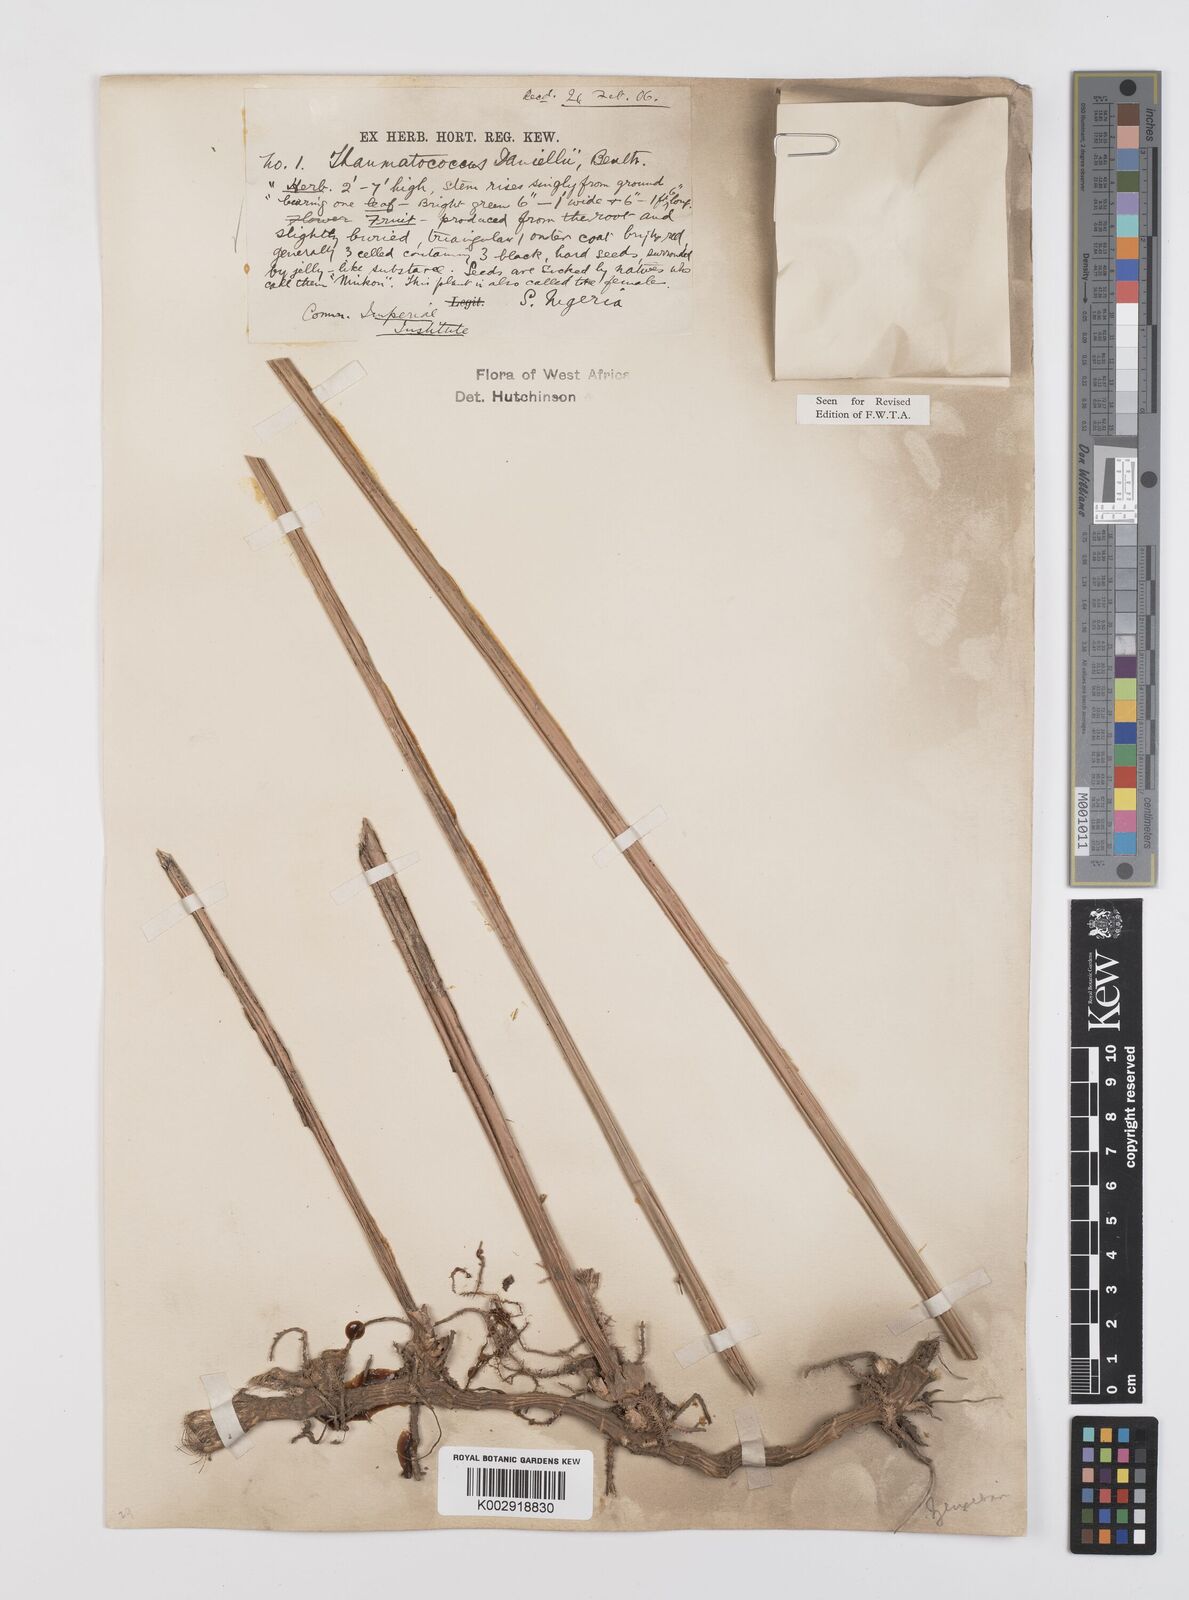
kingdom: Plantae
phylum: Tracheophyta
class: Liliopsida
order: Zingiberales
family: Marantaceae
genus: Thaumatococcus
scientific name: Thaumatococcus daniellii
